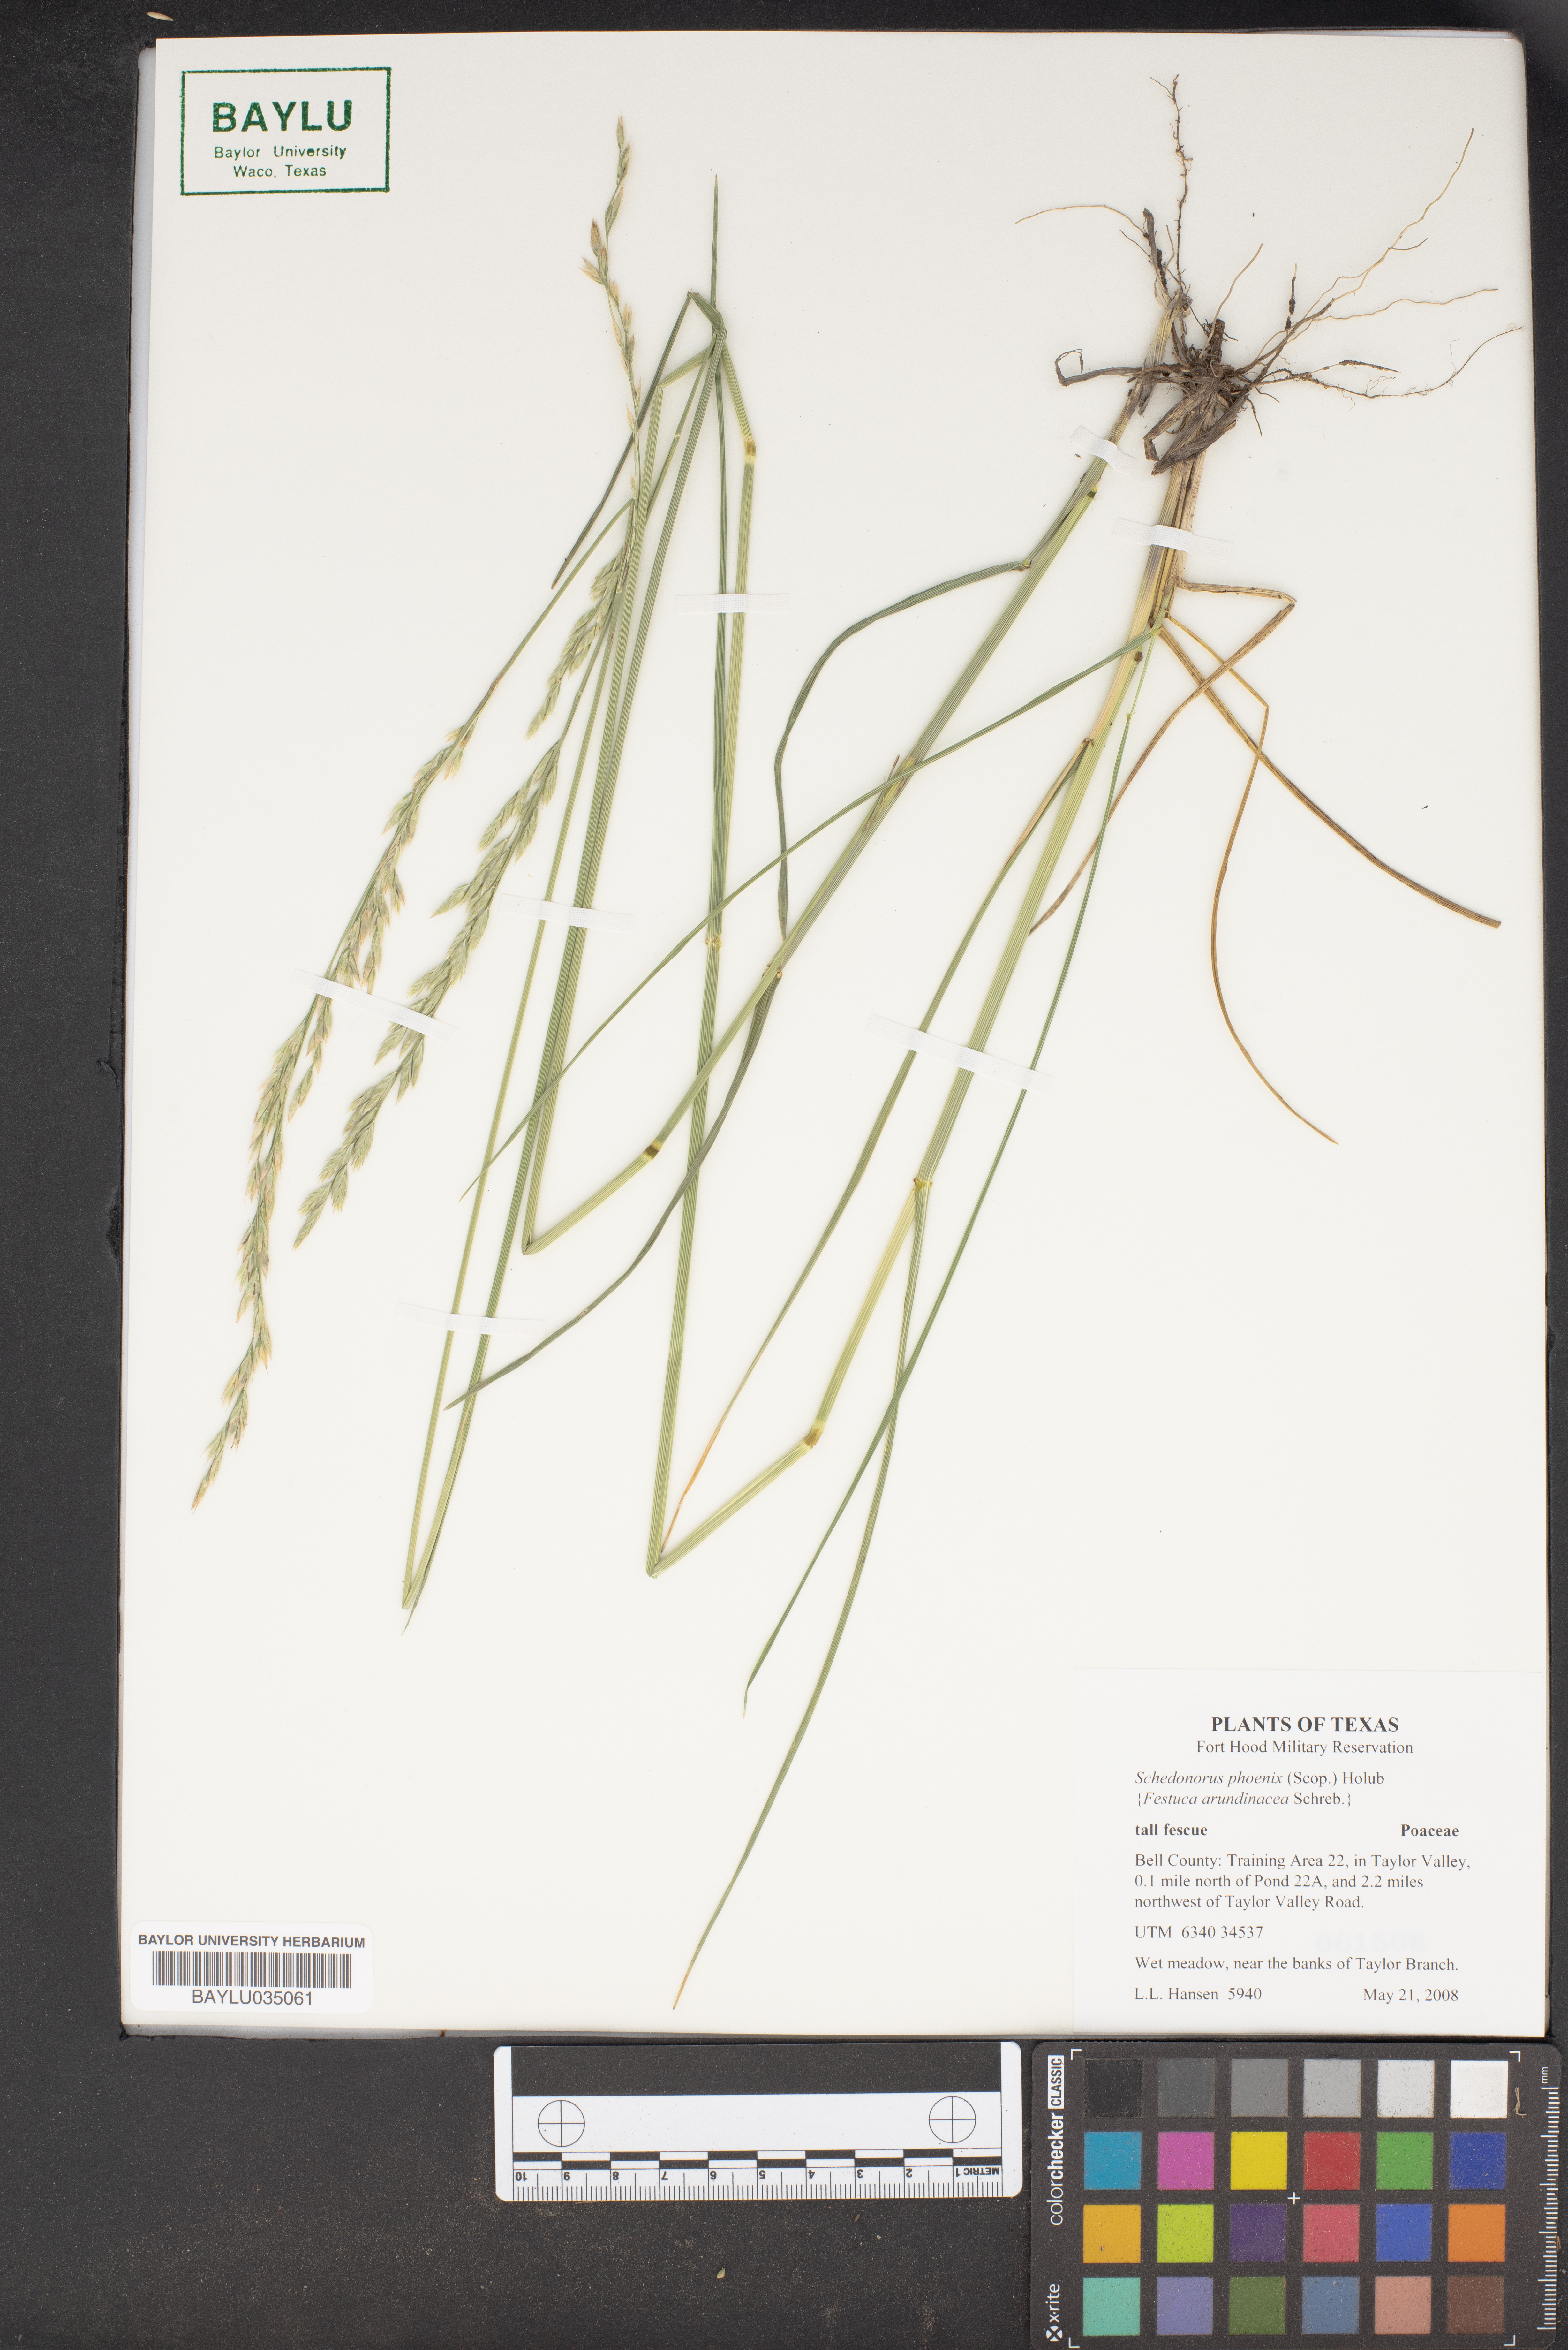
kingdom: Plantae
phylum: Tracheophyta
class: Liliopsida
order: Poales
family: Poaceae
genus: Lolium
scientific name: Lolium arundinaceum
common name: Reed fescue
